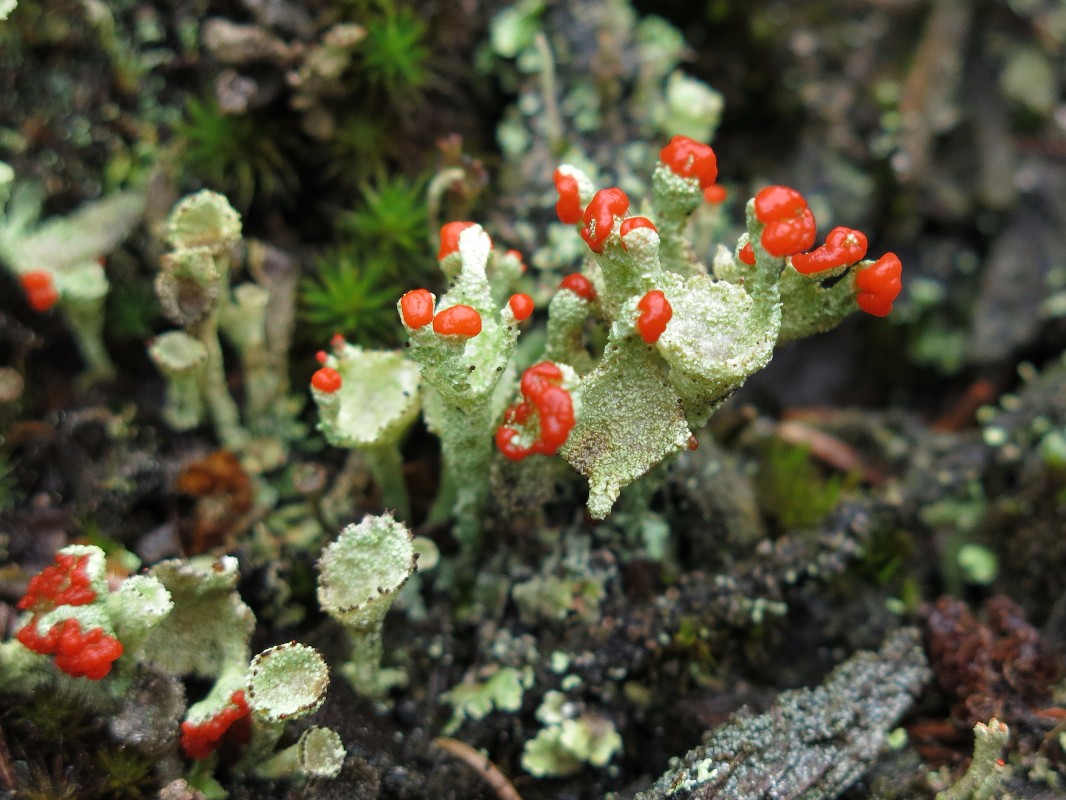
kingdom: Fungi
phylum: Ascomycota
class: Lecanoromycetes
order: Lecanorales
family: Cladoniaceae
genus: Cladonia
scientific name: Cladonia diversa
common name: rød bægerlav
